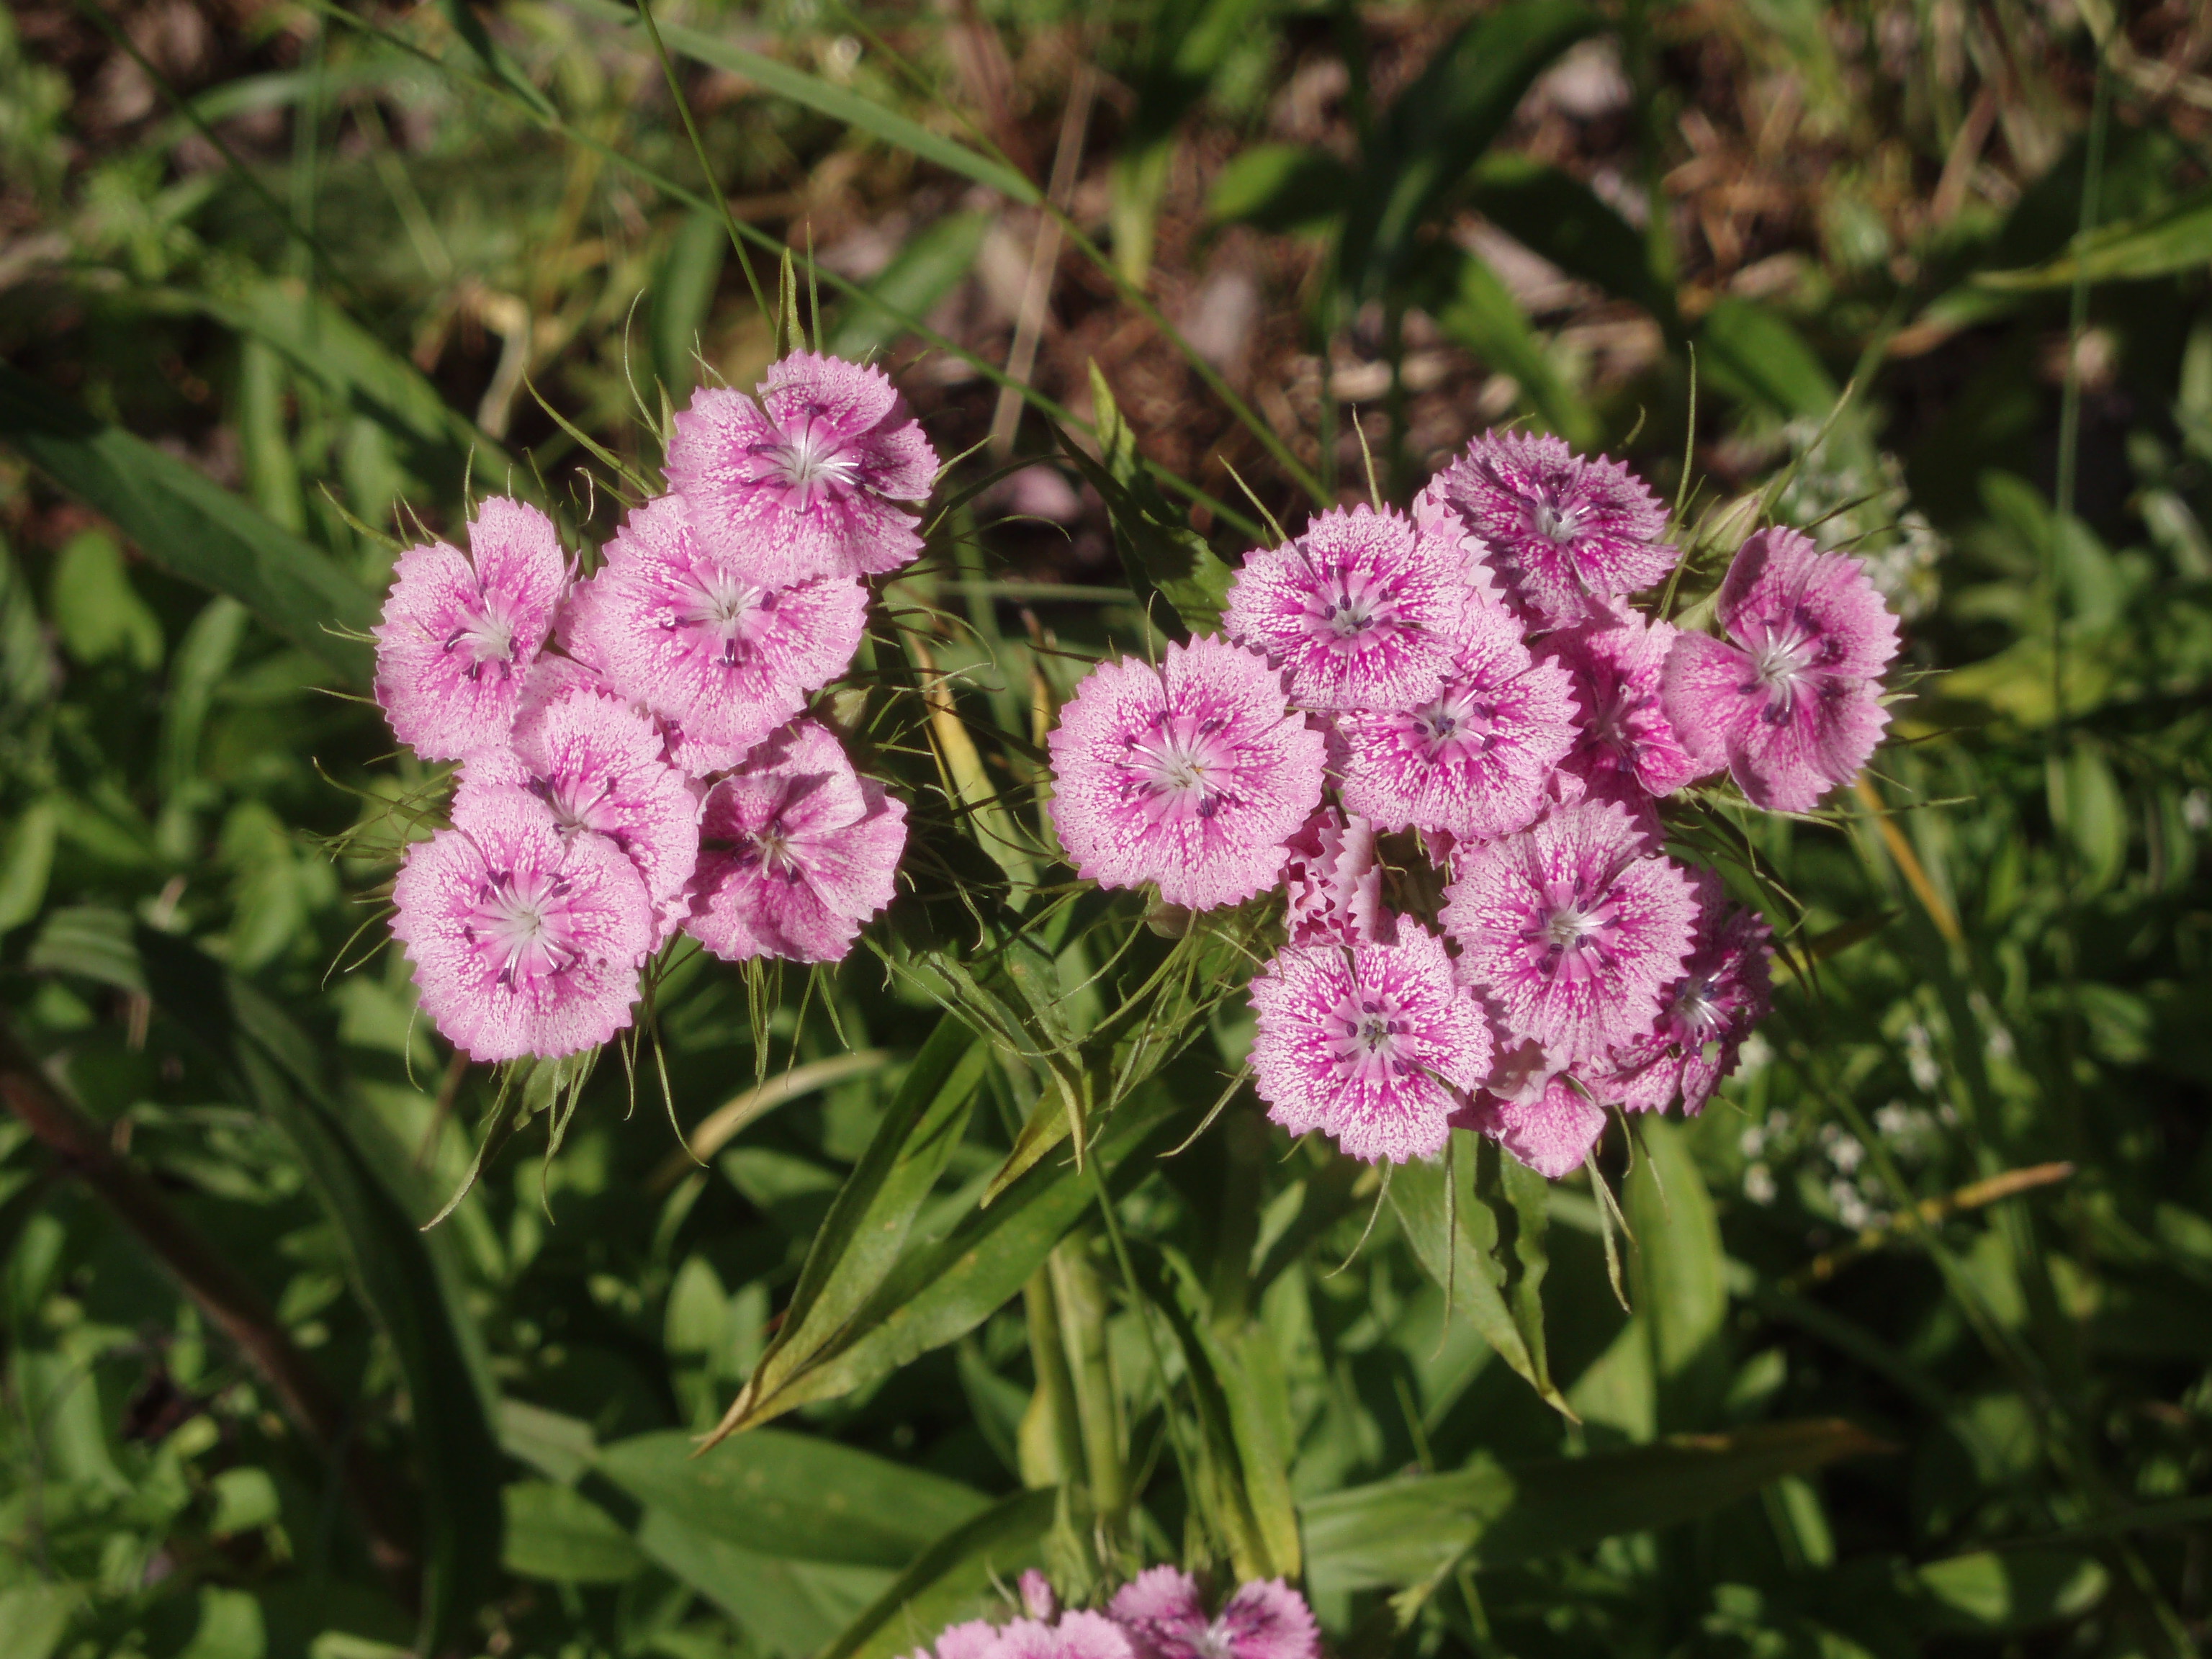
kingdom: Plantae
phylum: Tracheophyta
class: Magnoliopsida
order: Caryophyllales
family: Caryophyllaceae
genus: Dianthus
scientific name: Dianthus barbatus
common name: Sweet-william
